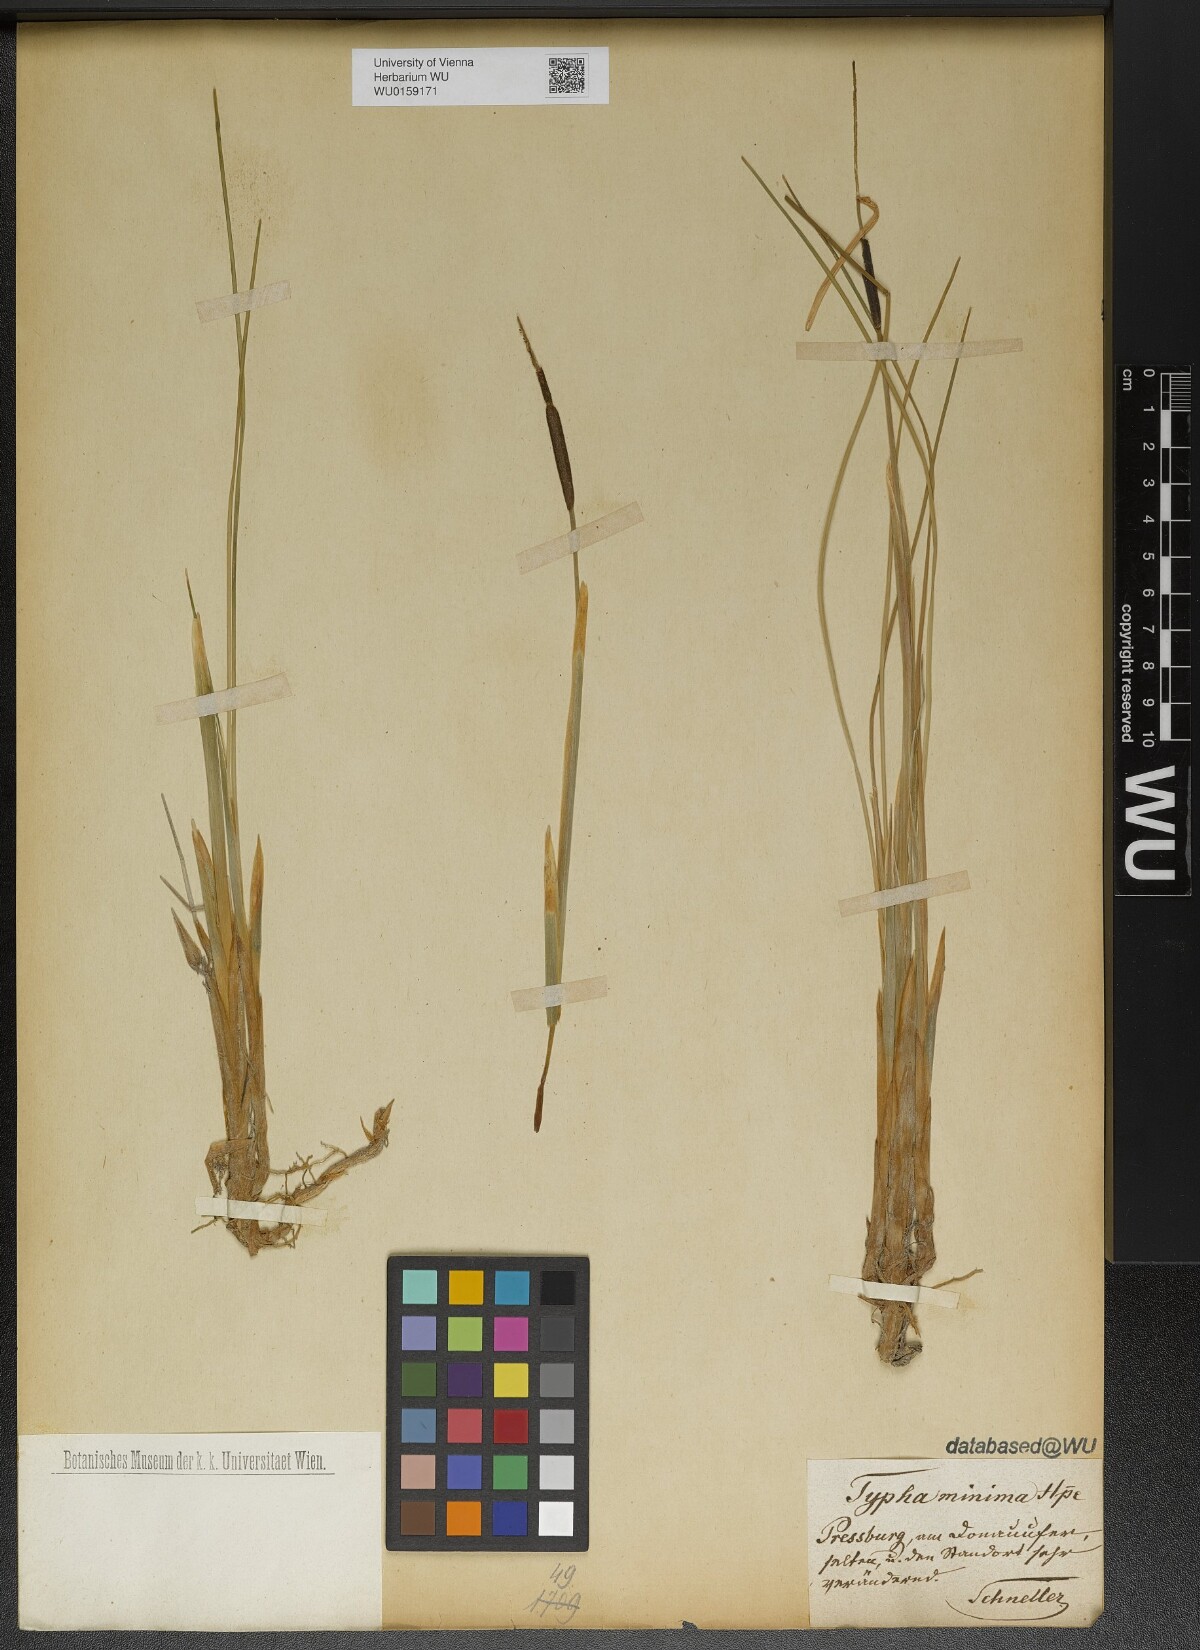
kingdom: Plantae
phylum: Tracheophyta
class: Liliopsida
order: Poales
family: Typhaceae
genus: Typha
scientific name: Typha minima
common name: Dwarf bulrush
